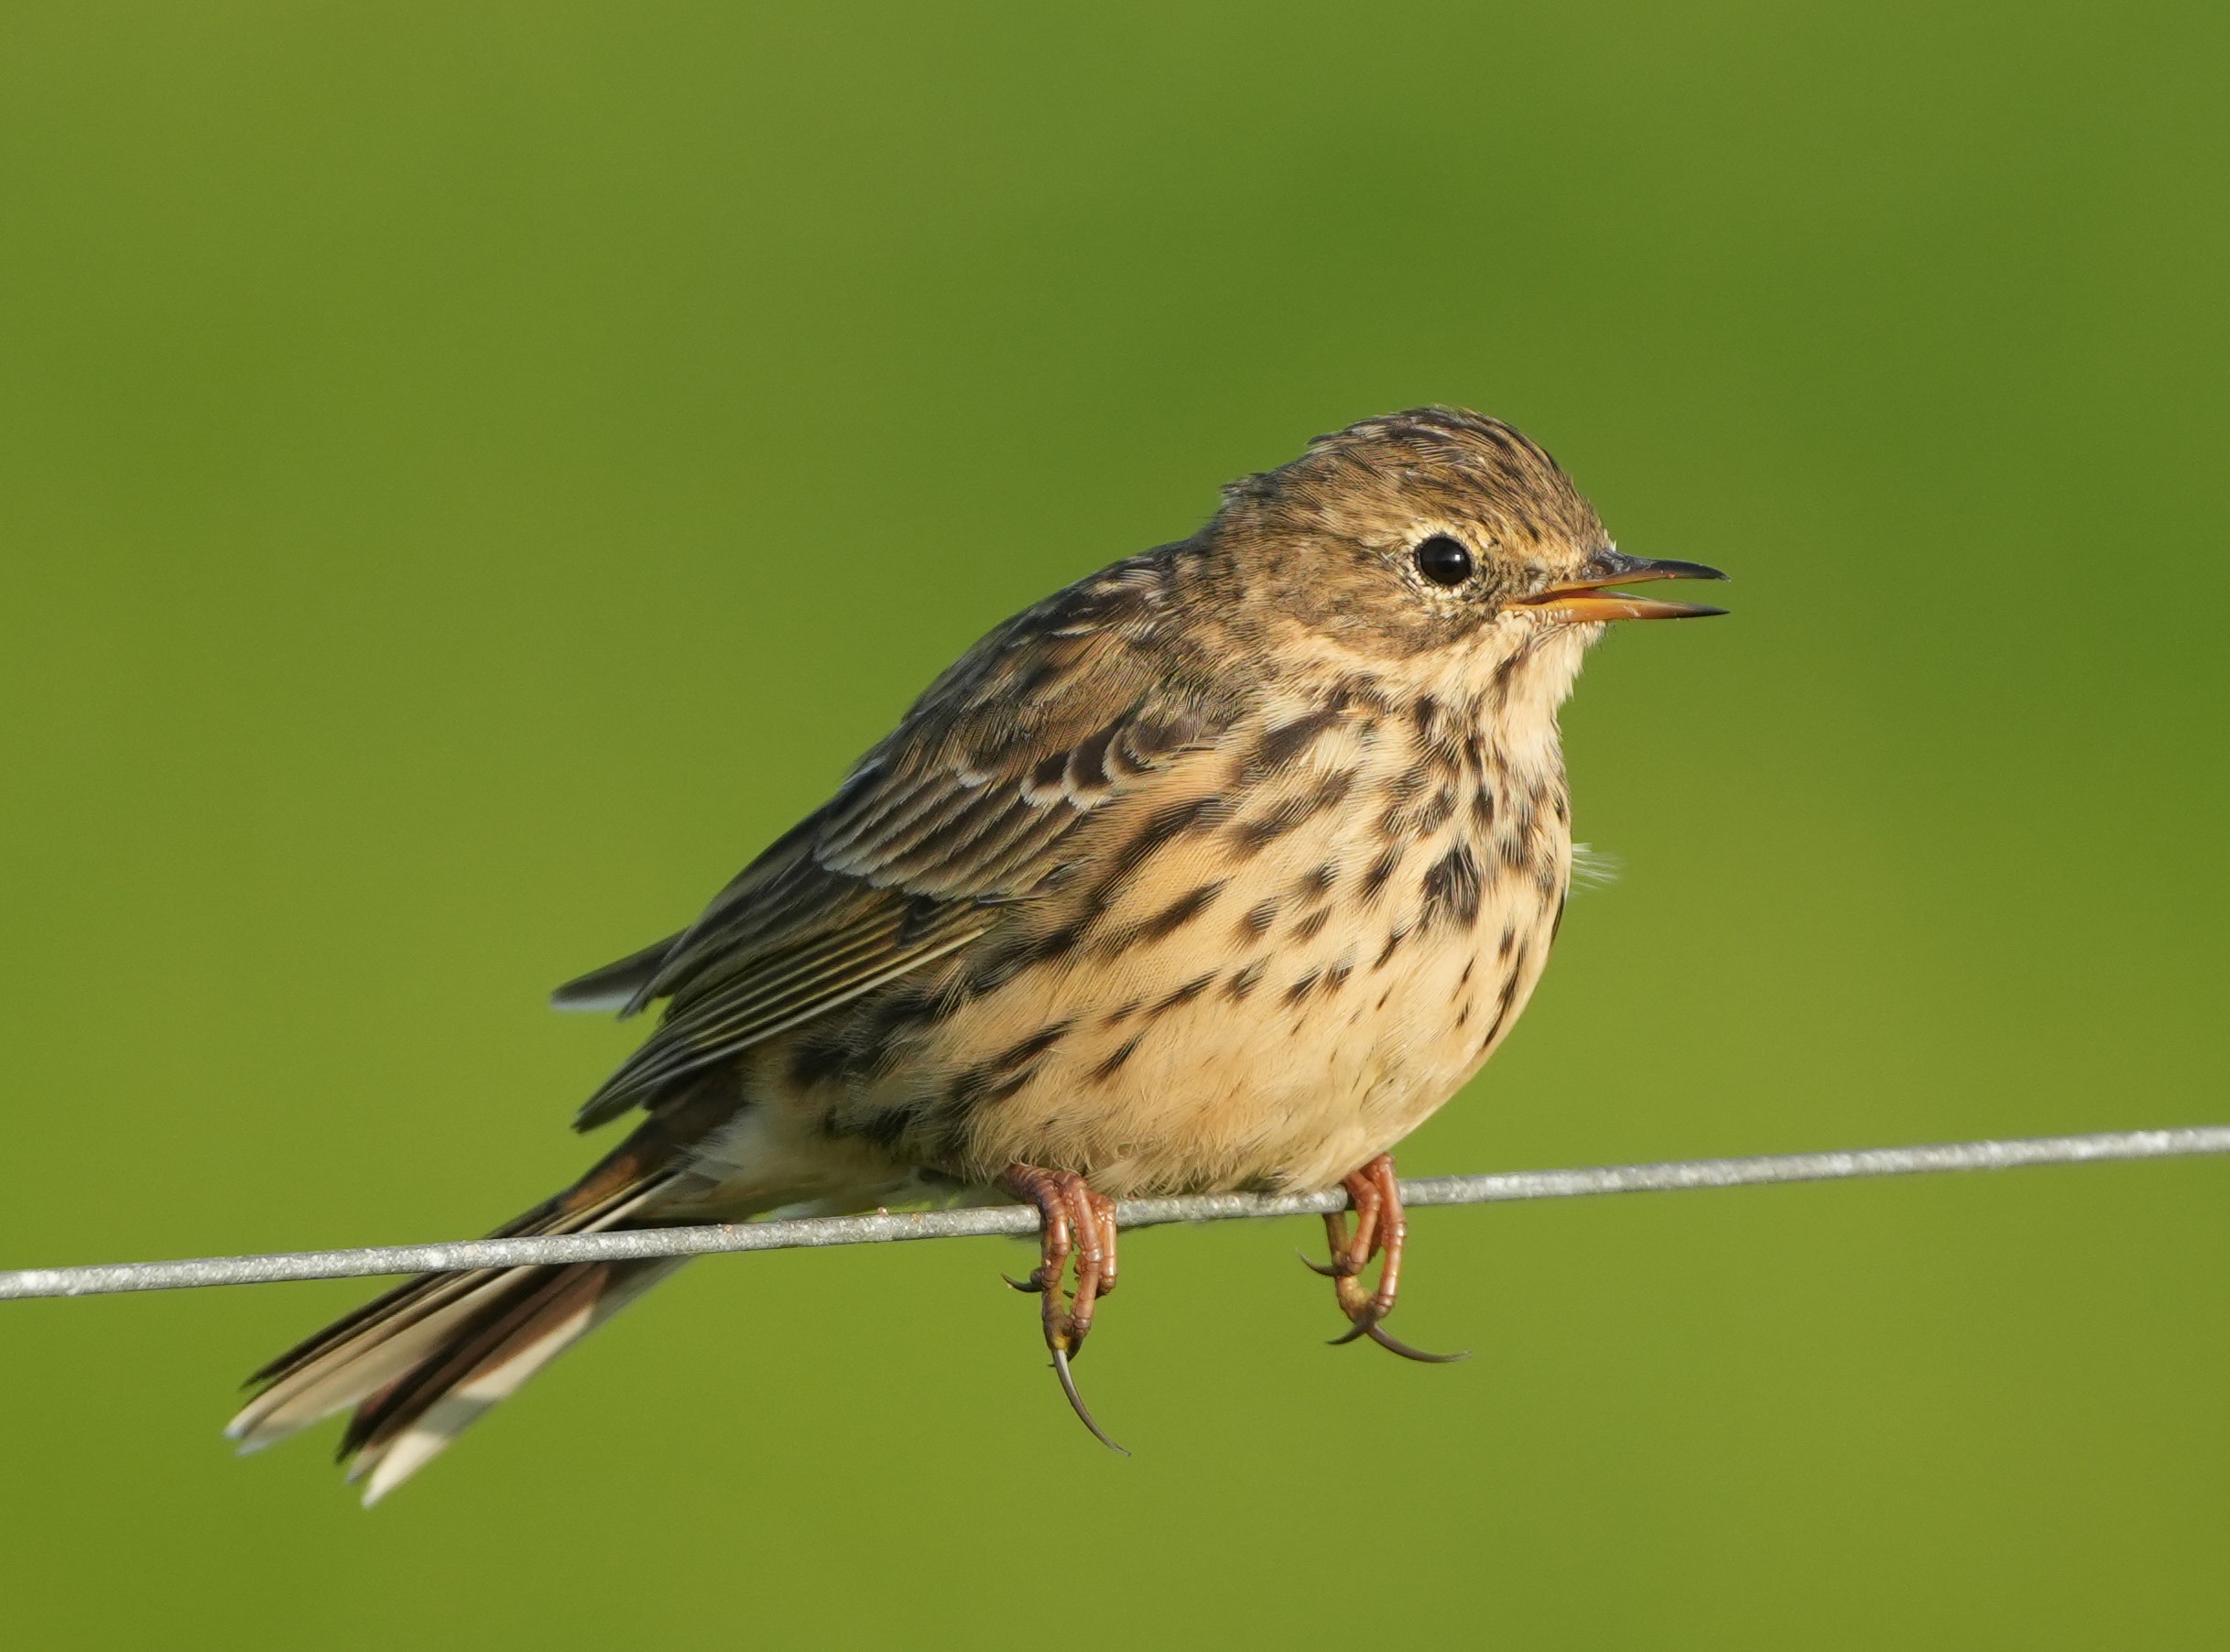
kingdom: Animalia
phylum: Chordata
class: Aves
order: Passeriformes
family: Motacillidae
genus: Anthus
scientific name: Anthus pratensis
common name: Engpiber
